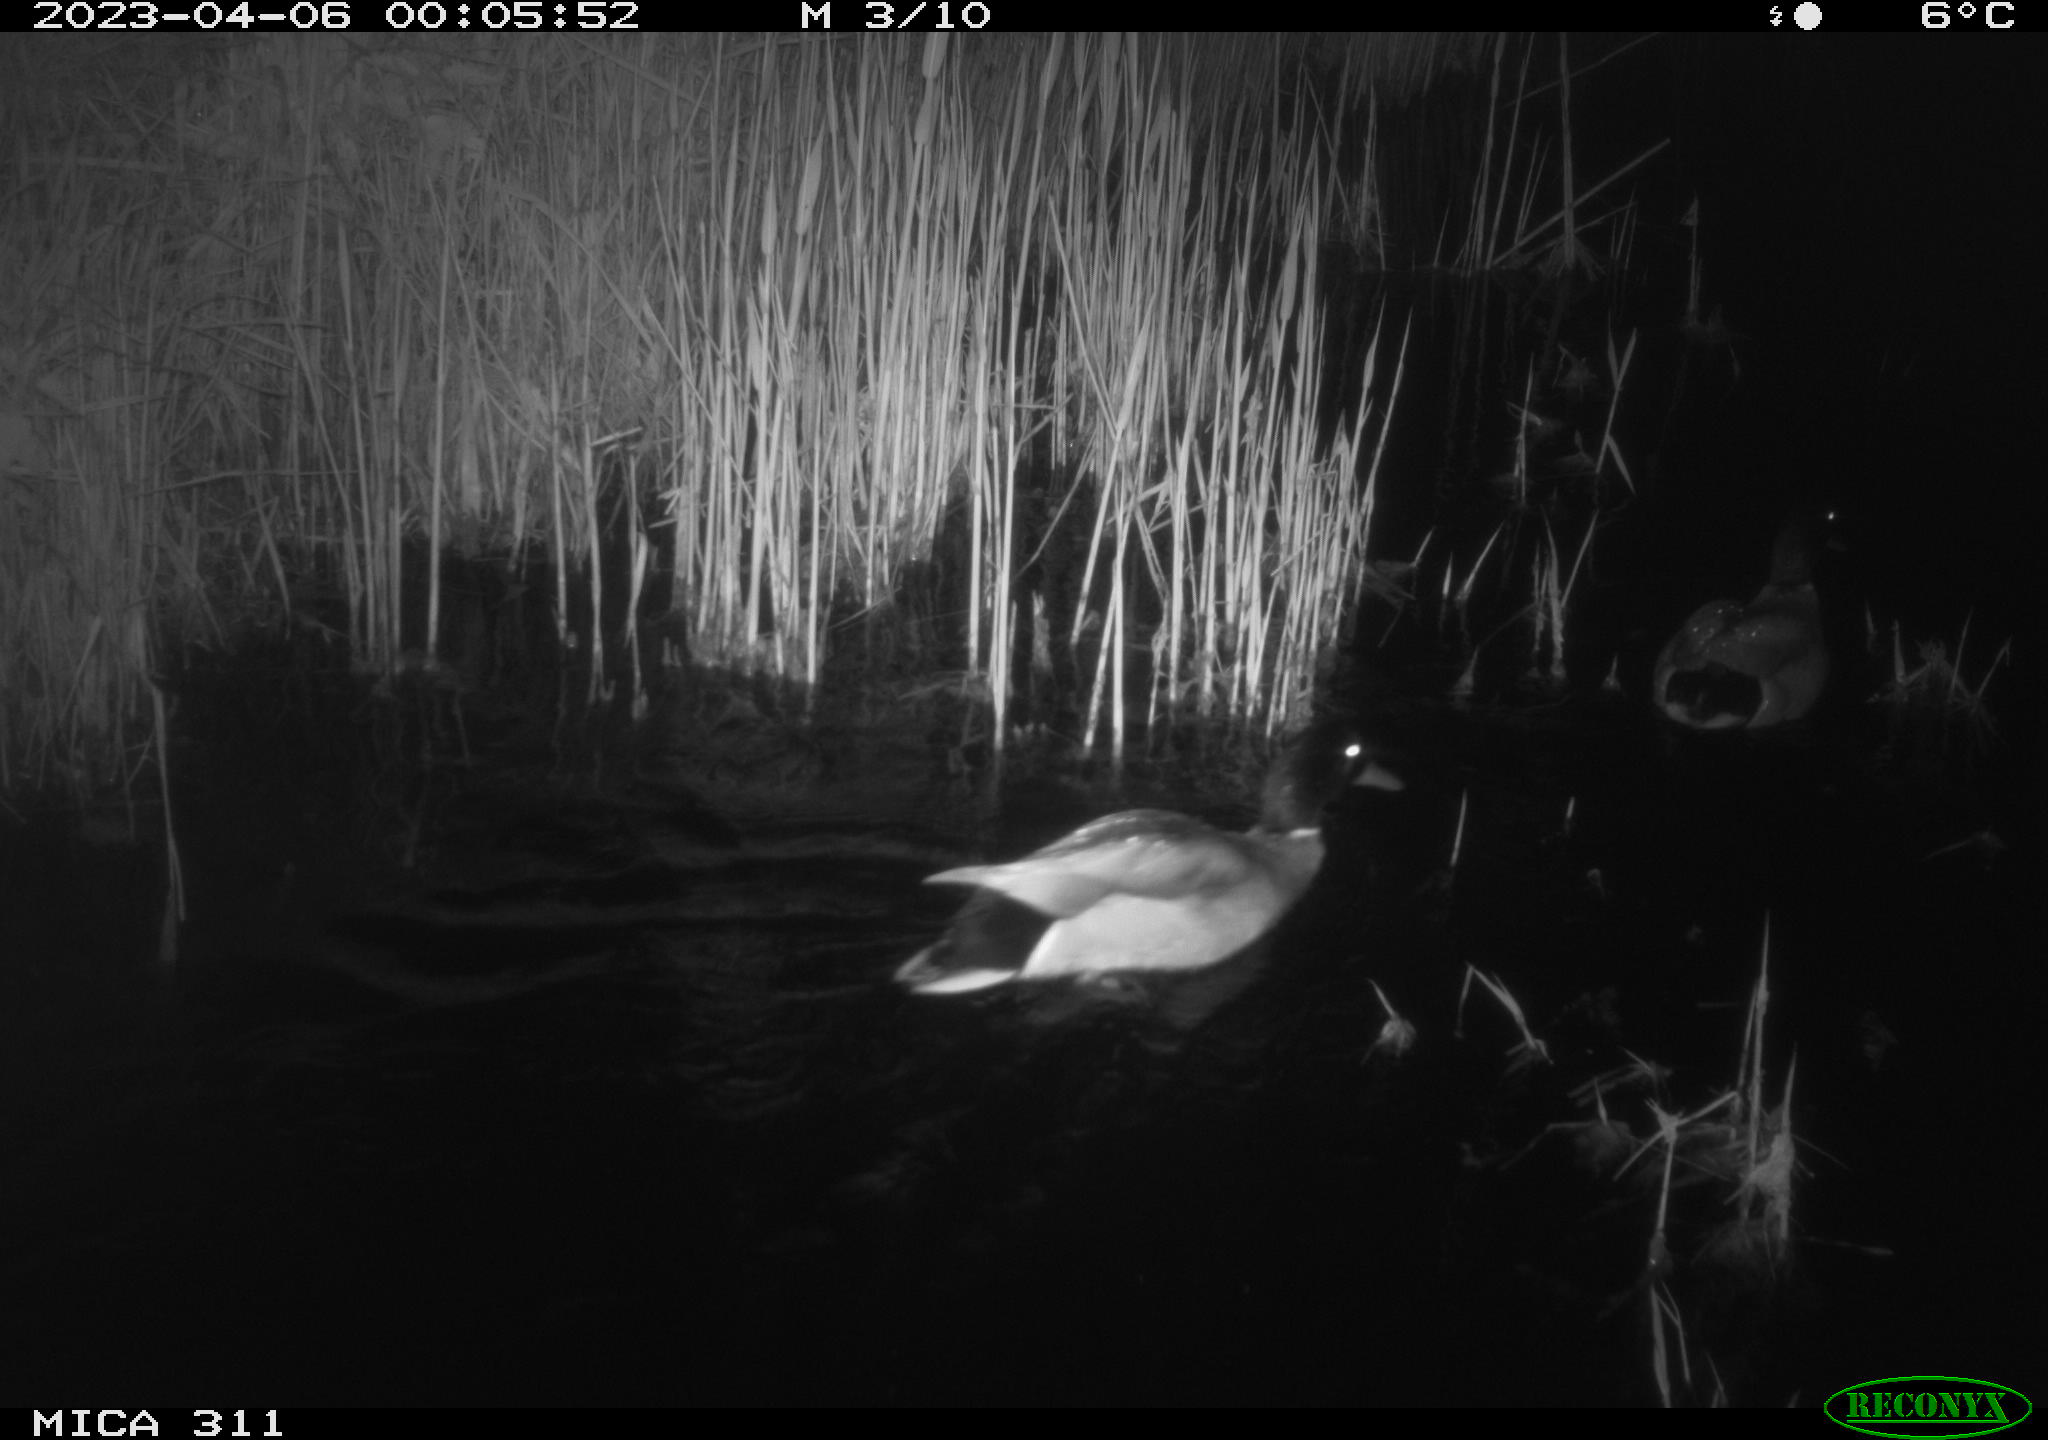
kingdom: Animalia
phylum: Chordata
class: Aves
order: Anseriformes
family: Anatidae
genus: Anas
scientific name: Anas
